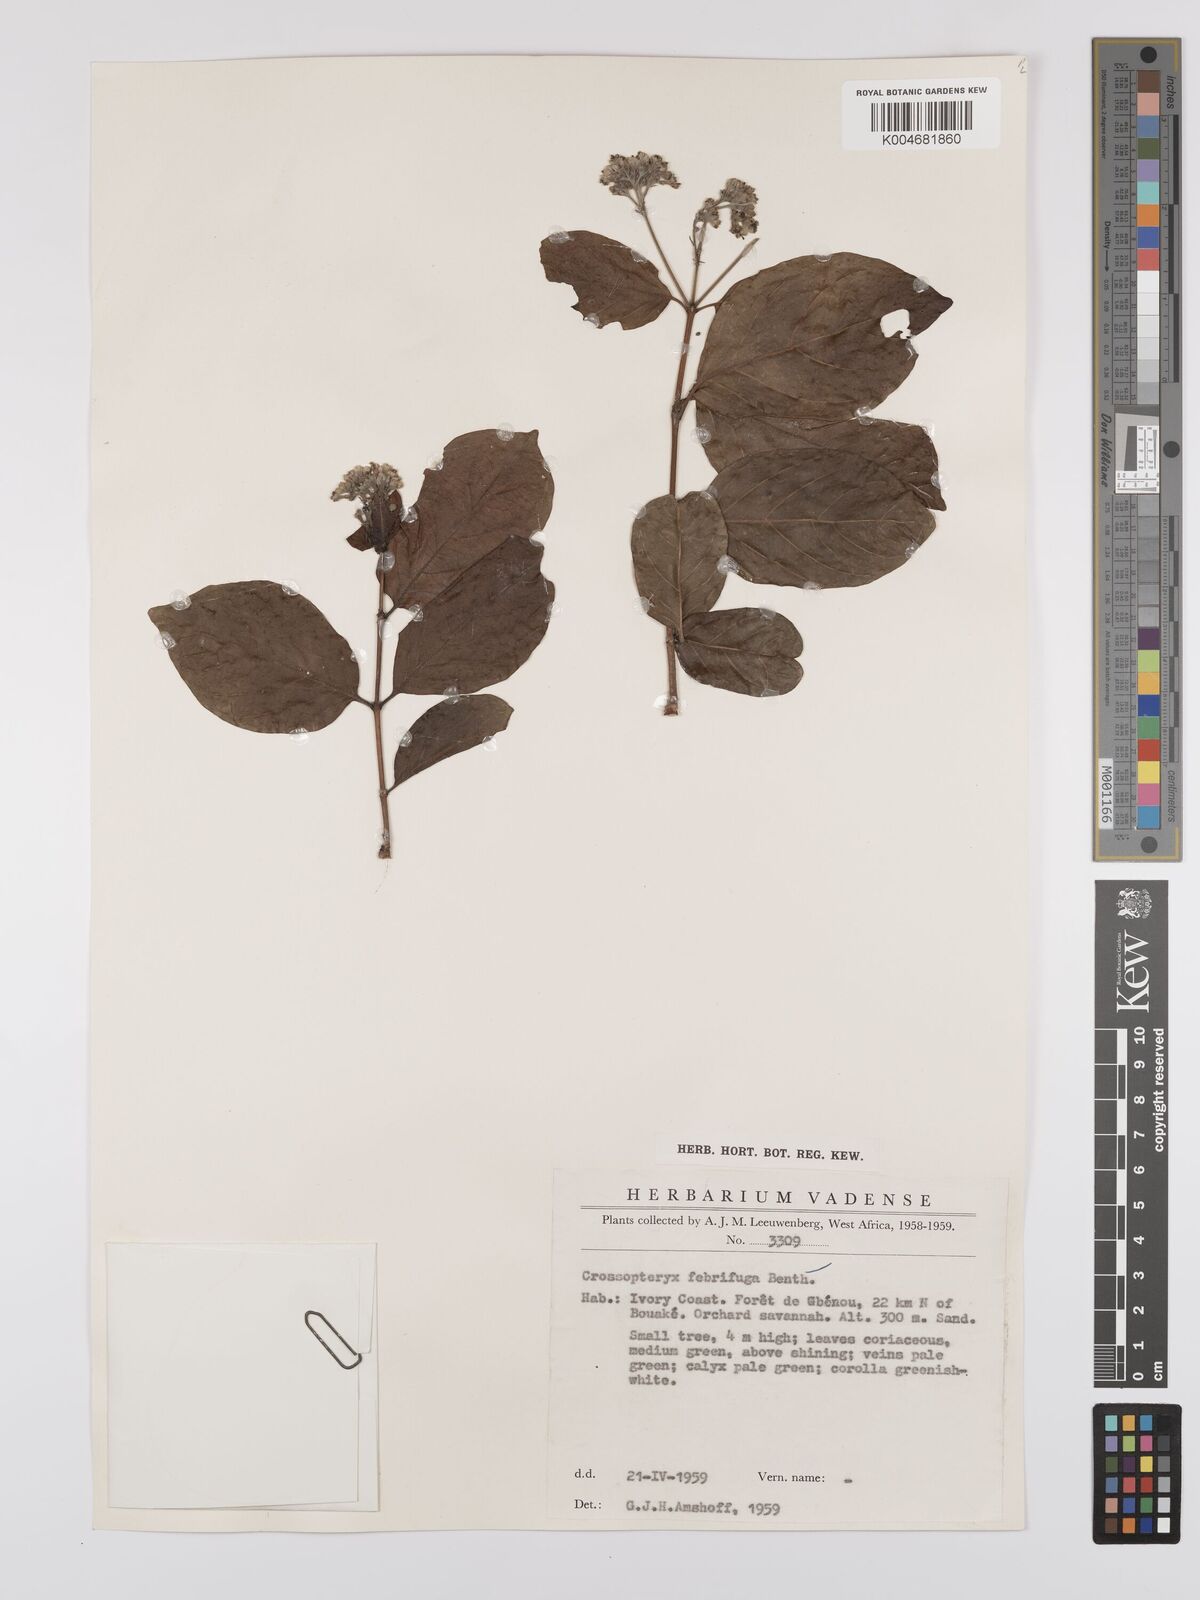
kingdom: Plantae
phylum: Tracheophyta
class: Magnoliopsida
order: Gentianales
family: Rubiaceae
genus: Crossopteryx
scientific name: Crossopteryx febrifuga
